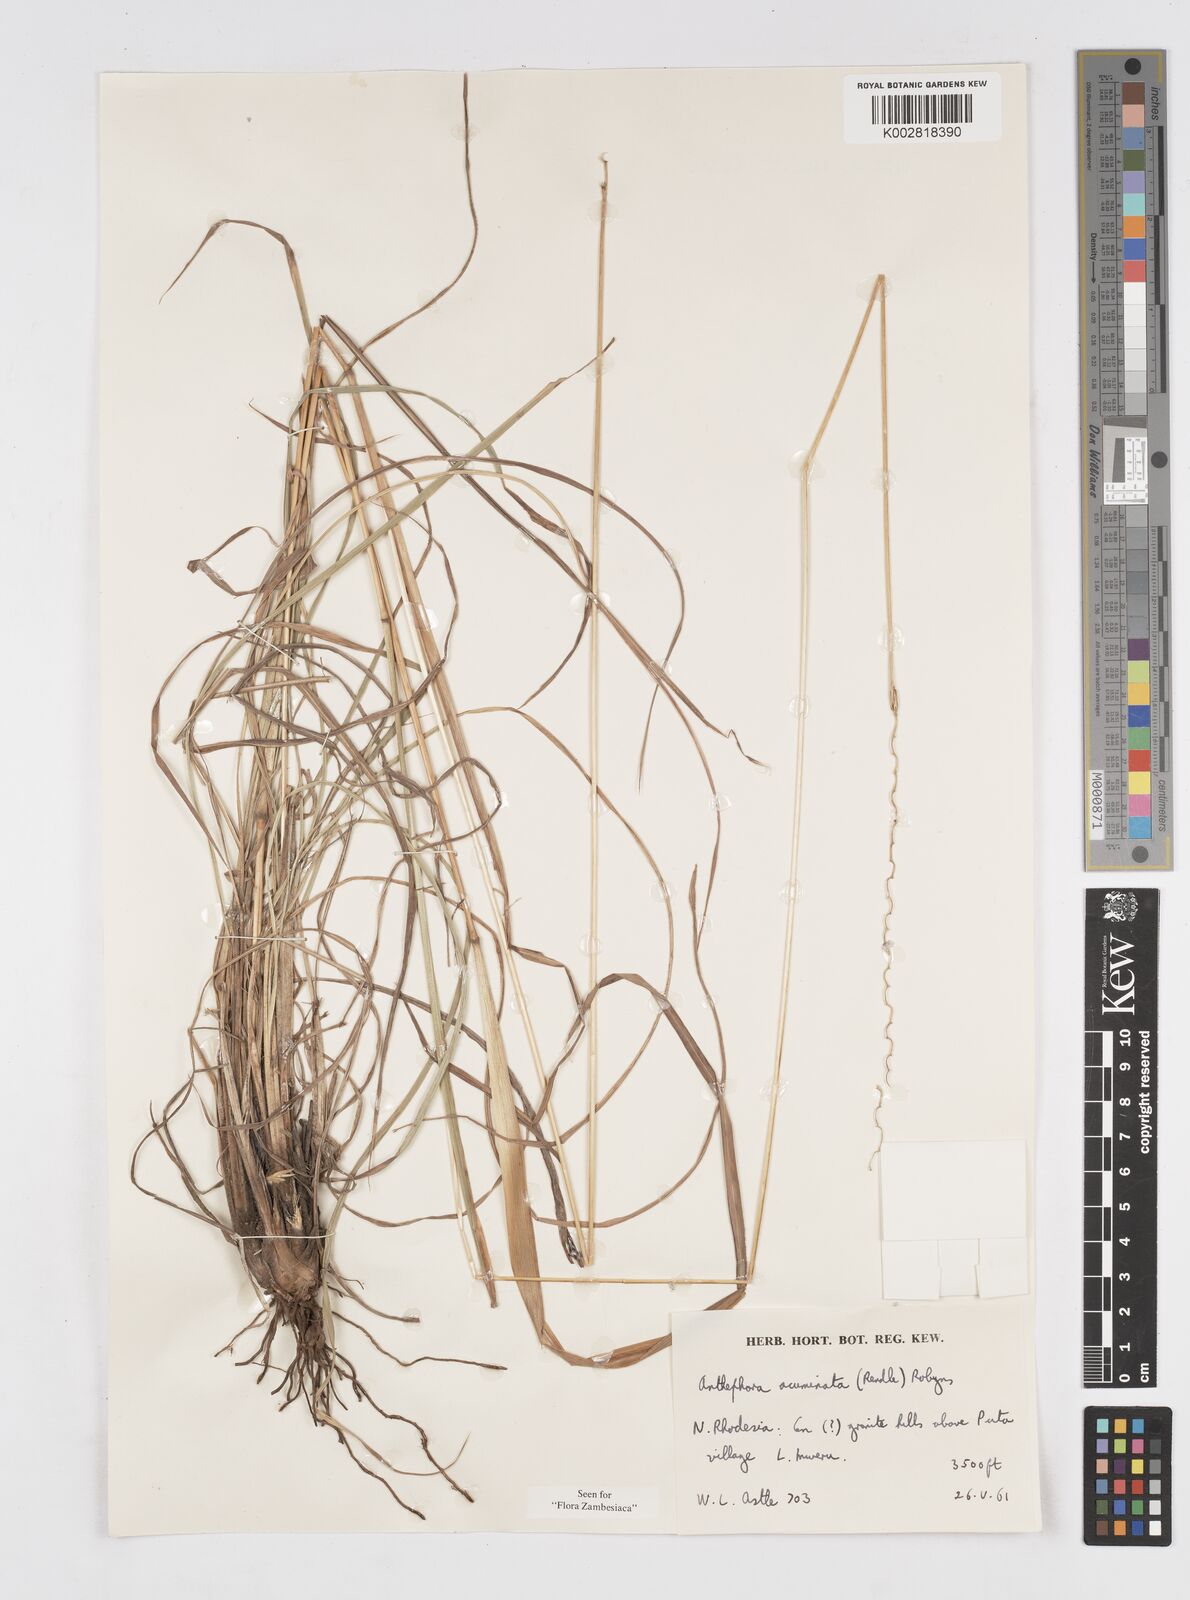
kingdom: Plantae
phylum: Tracheophyta
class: Liliopsida
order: Poales
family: Poaceae
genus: Anthephora
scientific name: Anthephora elongata
